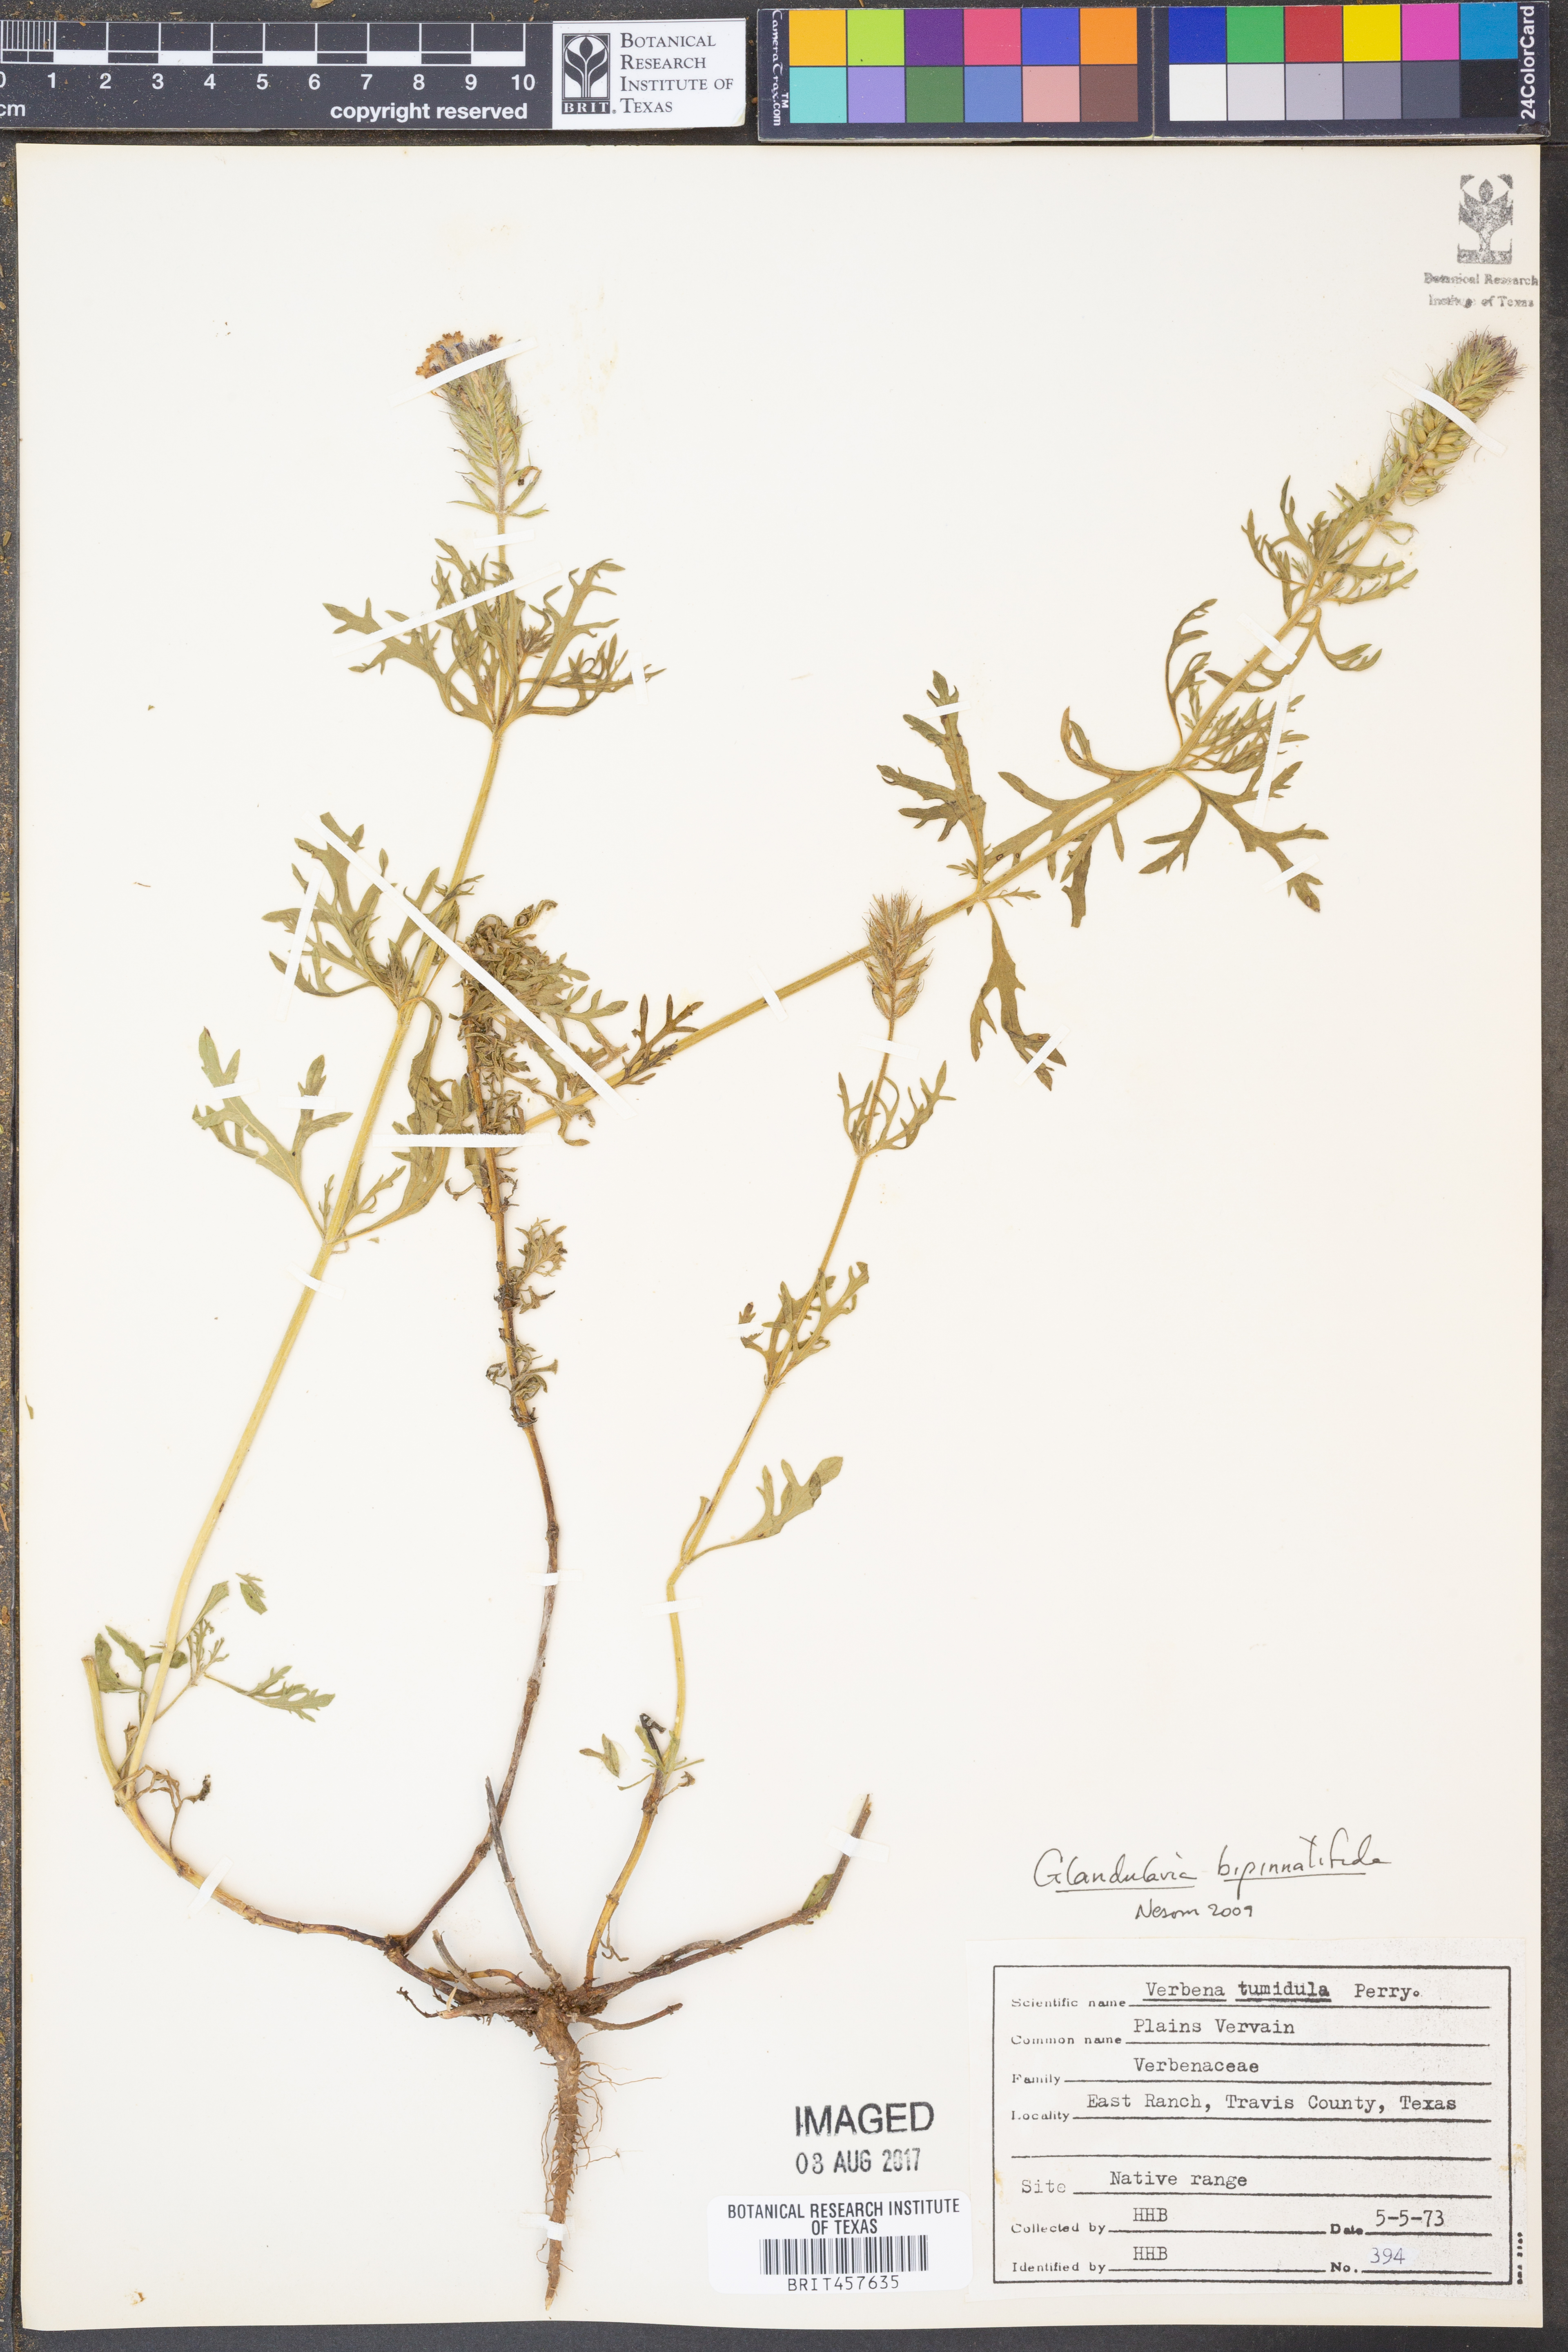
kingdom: Plantae
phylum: Tracheophyta
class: Magnoliopsida
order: Lamiales
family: Verbenaceae
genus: Verbena
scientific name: Verbena bipinnatifida
